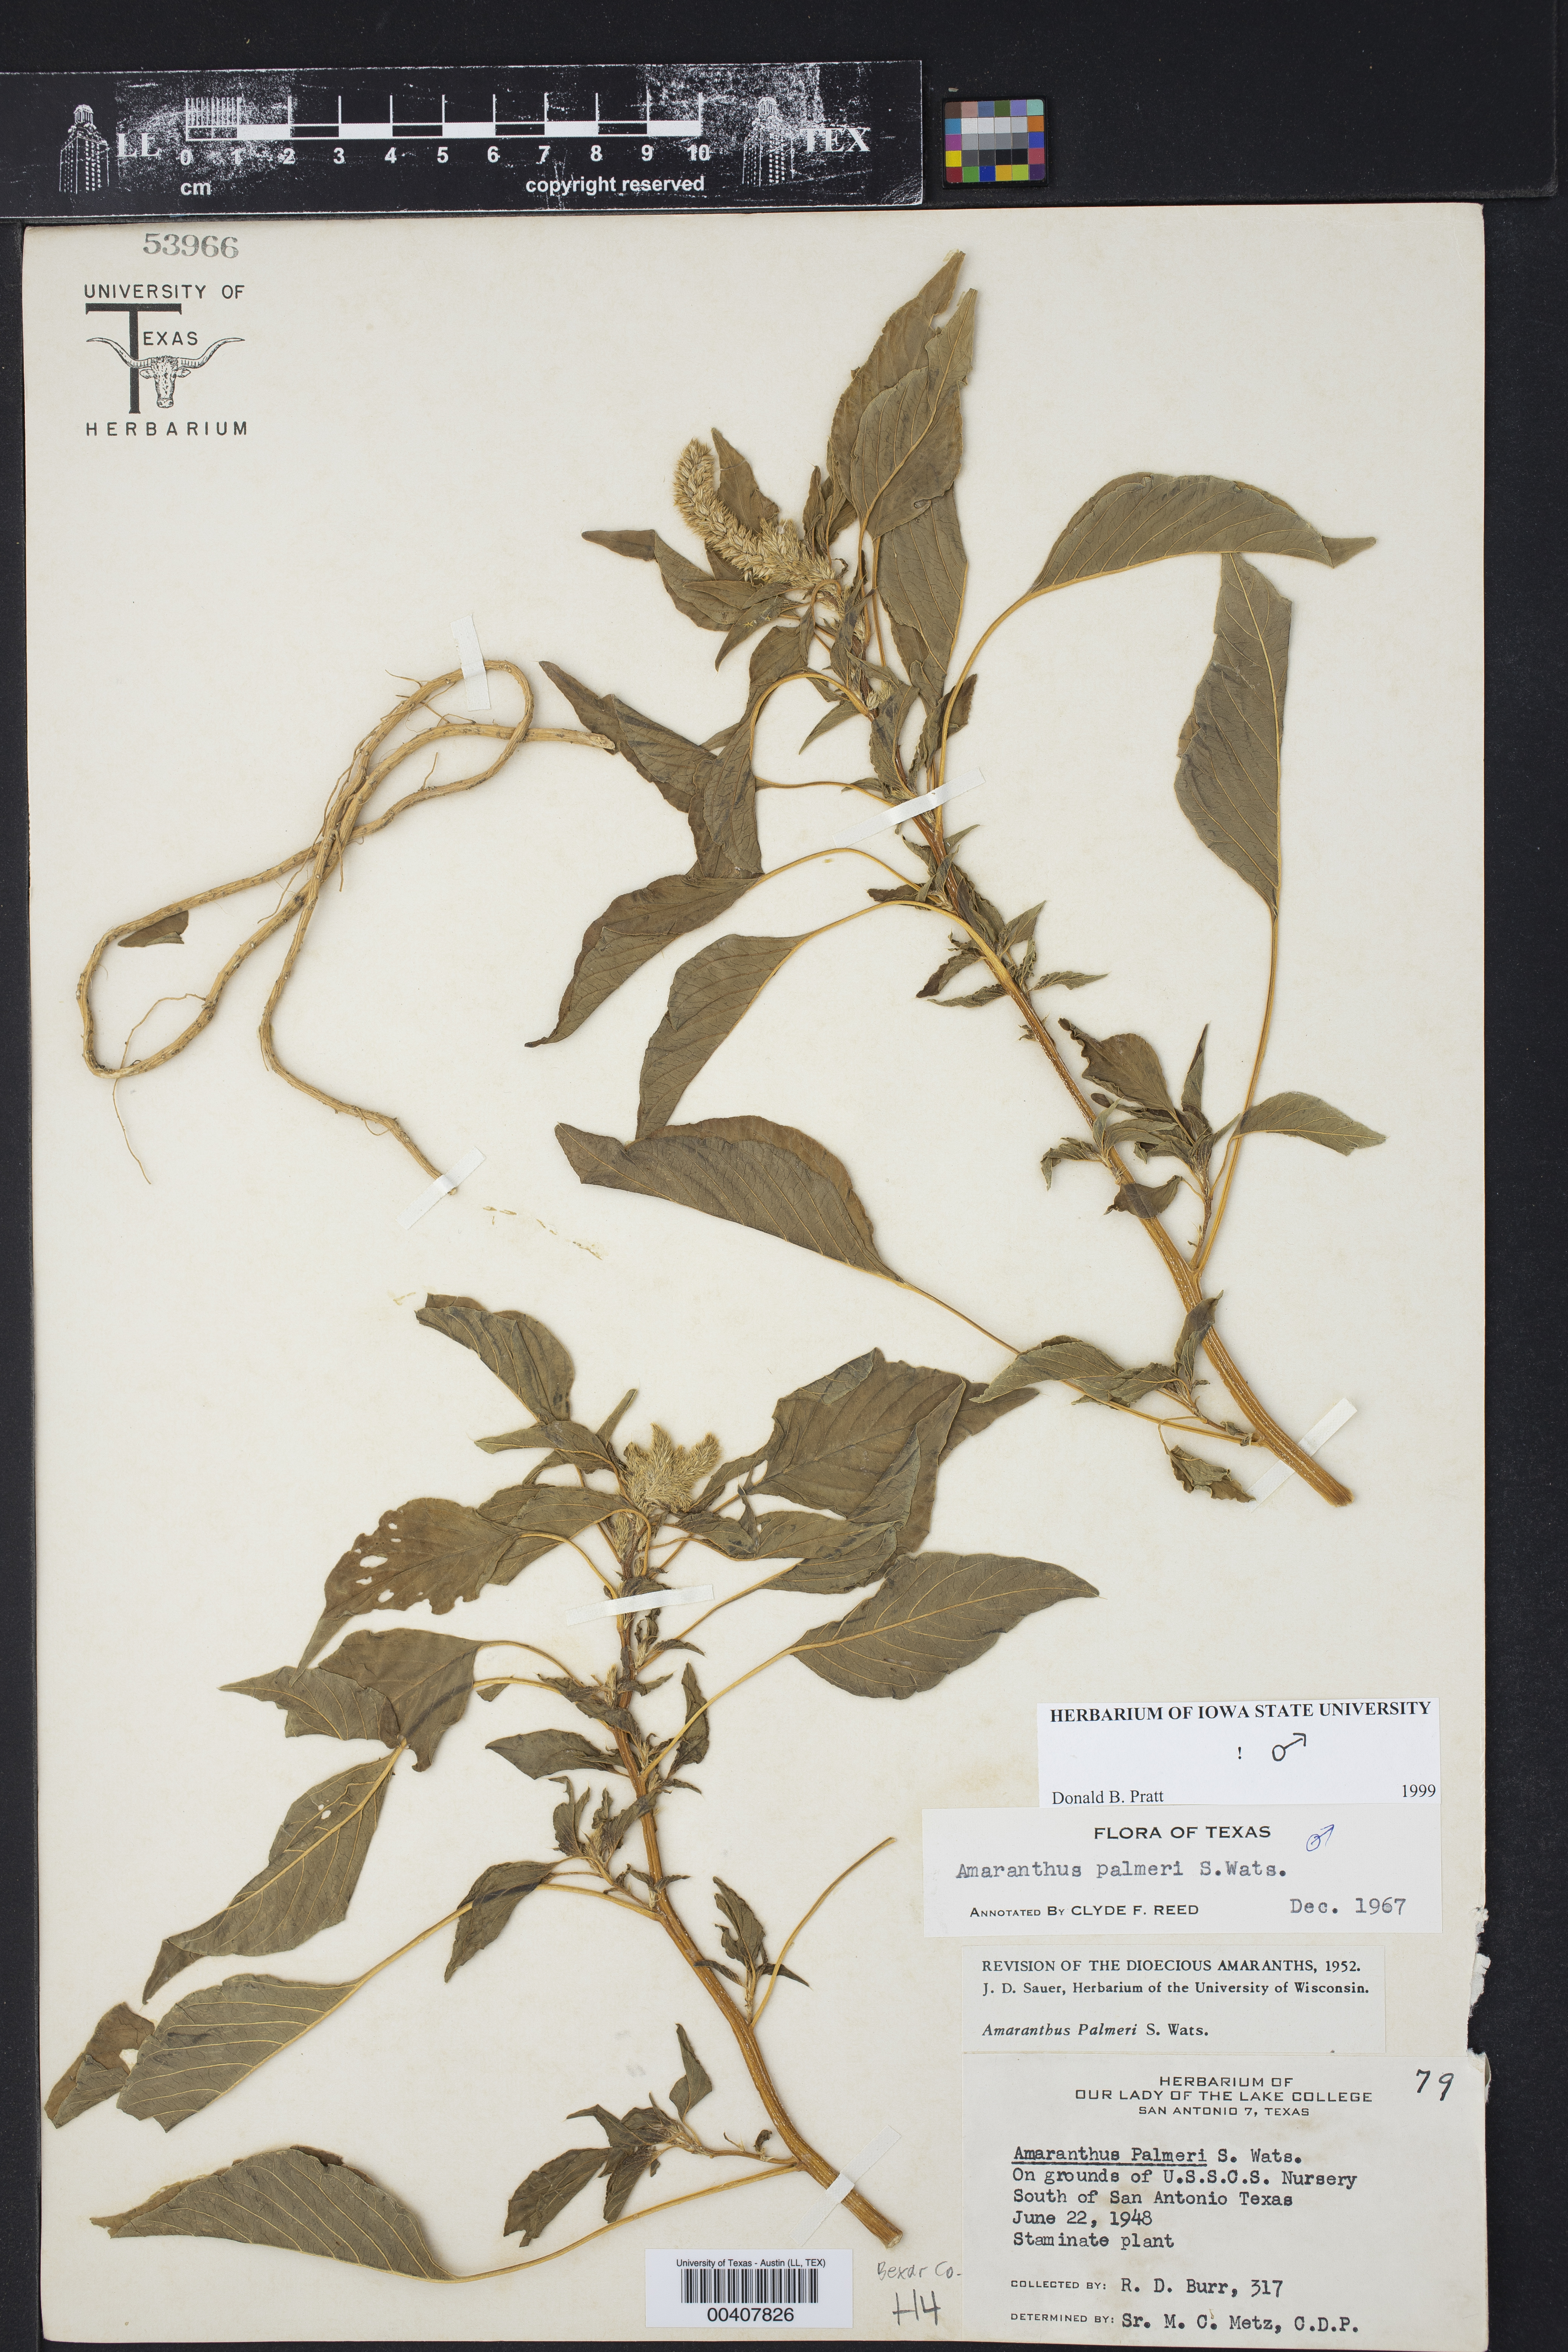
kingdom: Plantae
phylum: Tracheophyta
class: Magnoliopsida
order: Caryophyllales
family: Amaranthaceae
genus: Amaranthus
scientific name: Amaranthus palmeri
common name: Dioecious amaranth
